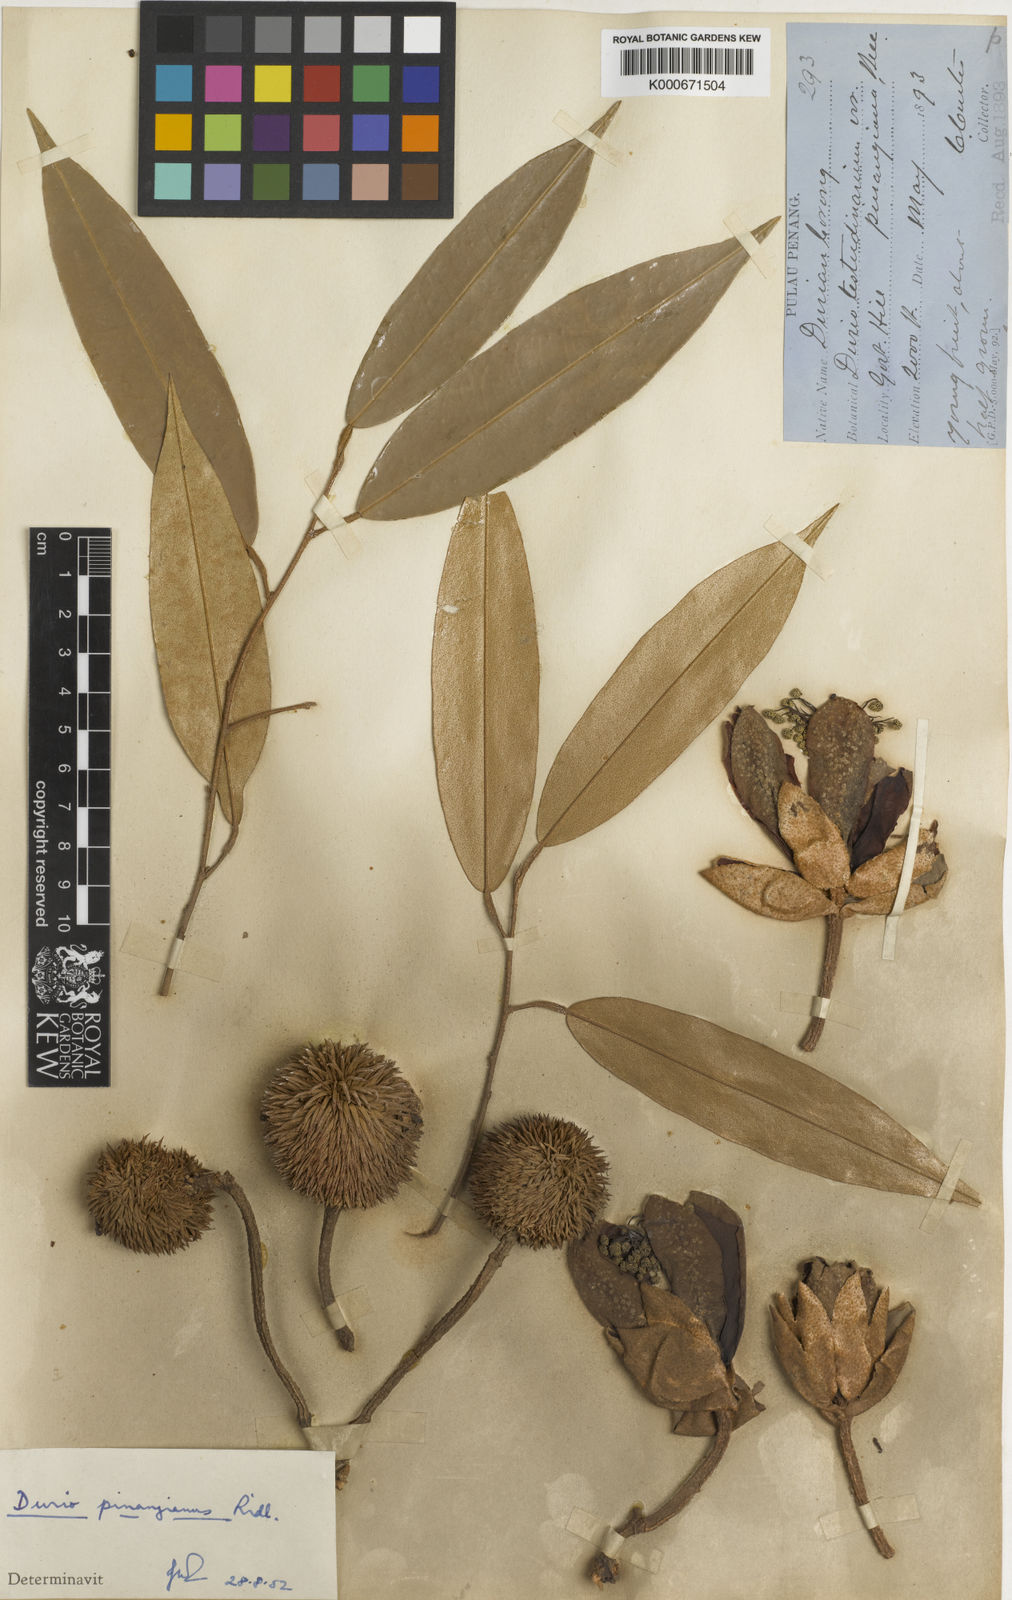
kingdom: Plantae
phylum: Tracheophyta
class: Magnoliopsida
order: Malvales
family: Malvaceae
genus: Durio
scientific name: Durio pinangianus
